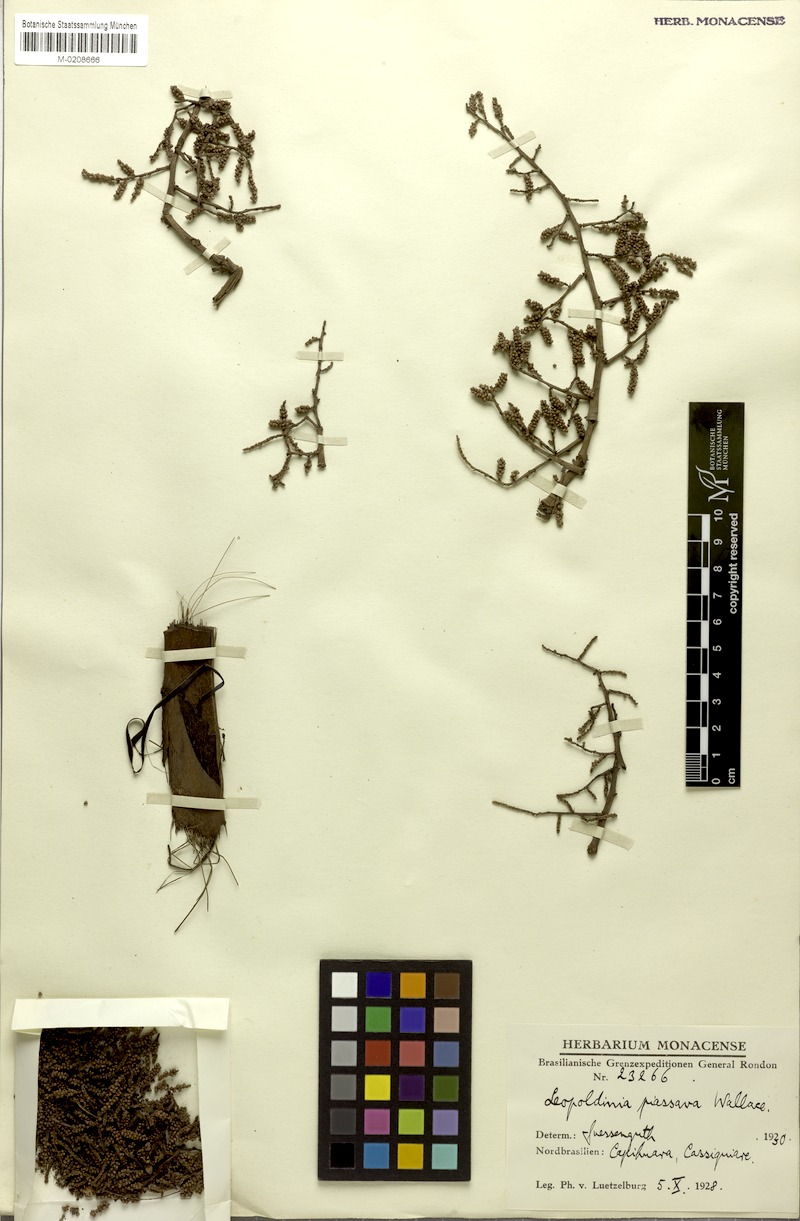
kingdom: Plantae
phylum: Tracheophyta
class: Liliopsida
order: Arecales
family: Arecaceae
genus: Leopoldinia
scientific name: Leopoldinia piassaba
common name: Piassaba
